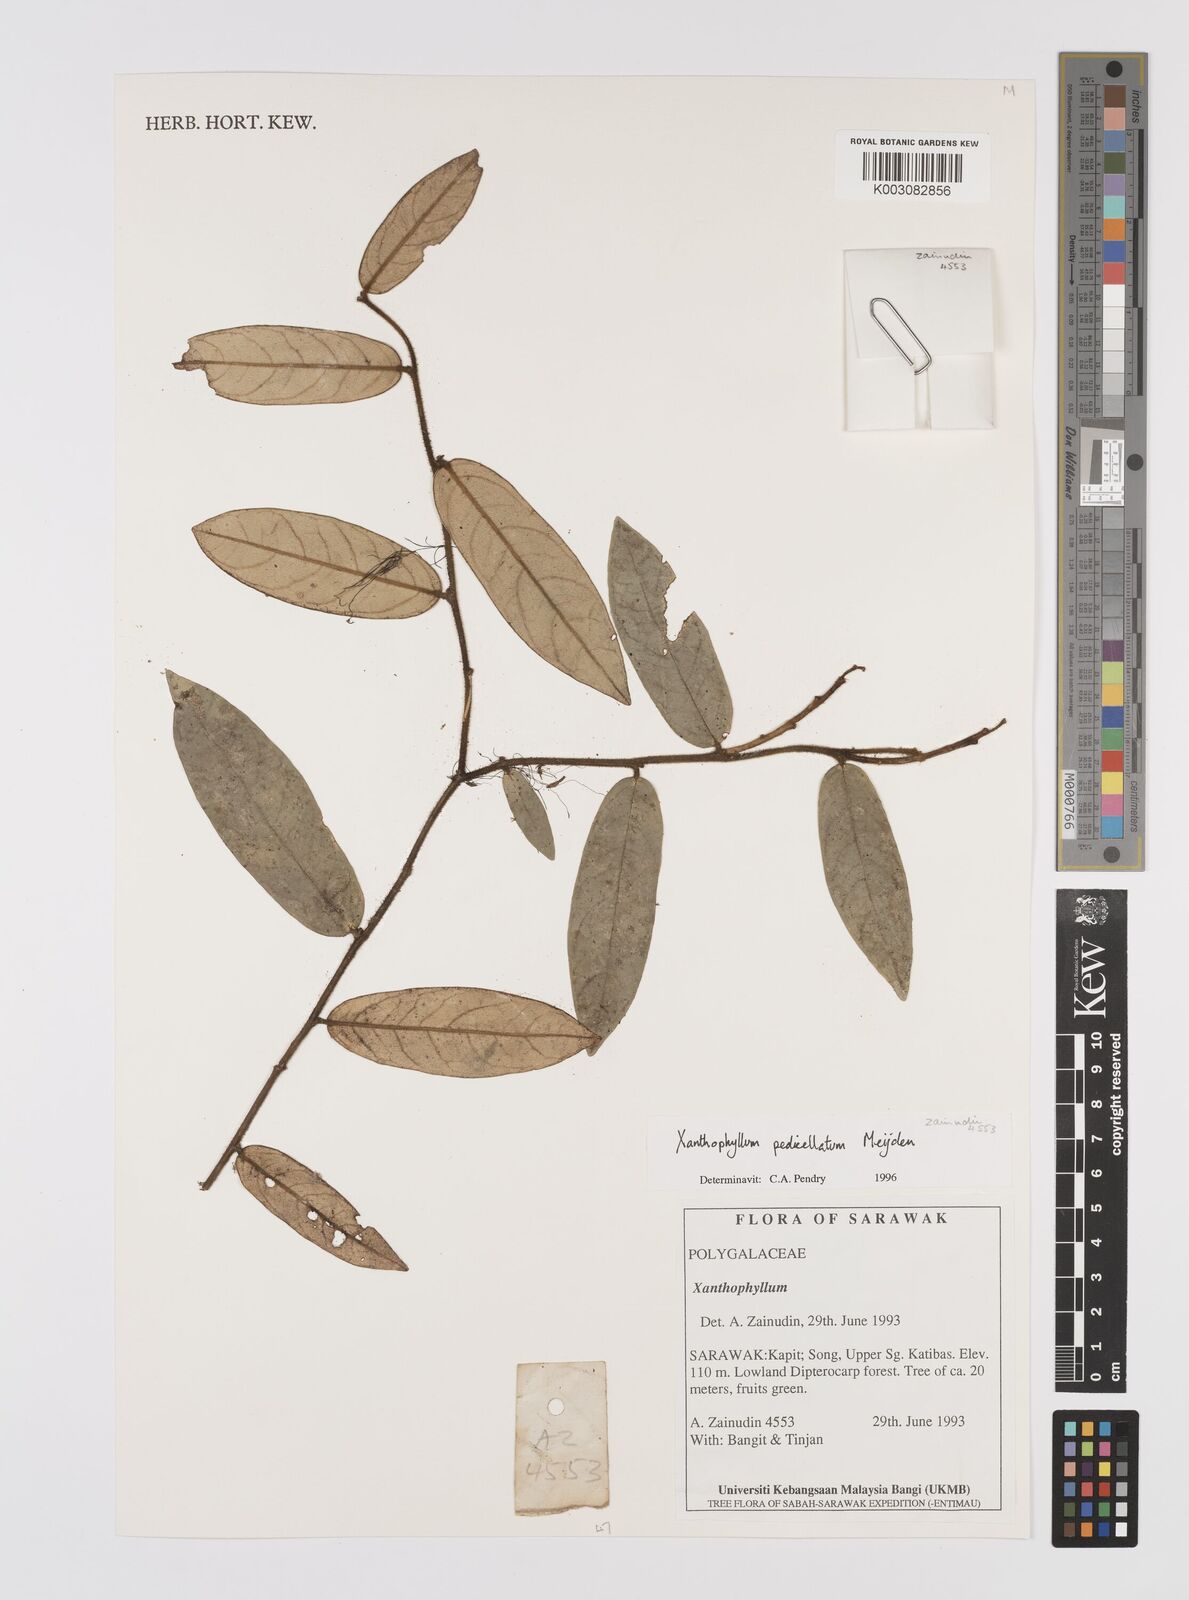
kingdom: Plantae
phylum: Tracheophyta
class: Magnoliopsida
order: Fabales
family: Polygalaceae
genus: Xanthophyllum
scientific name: Xanthophyllum pedicellatum
